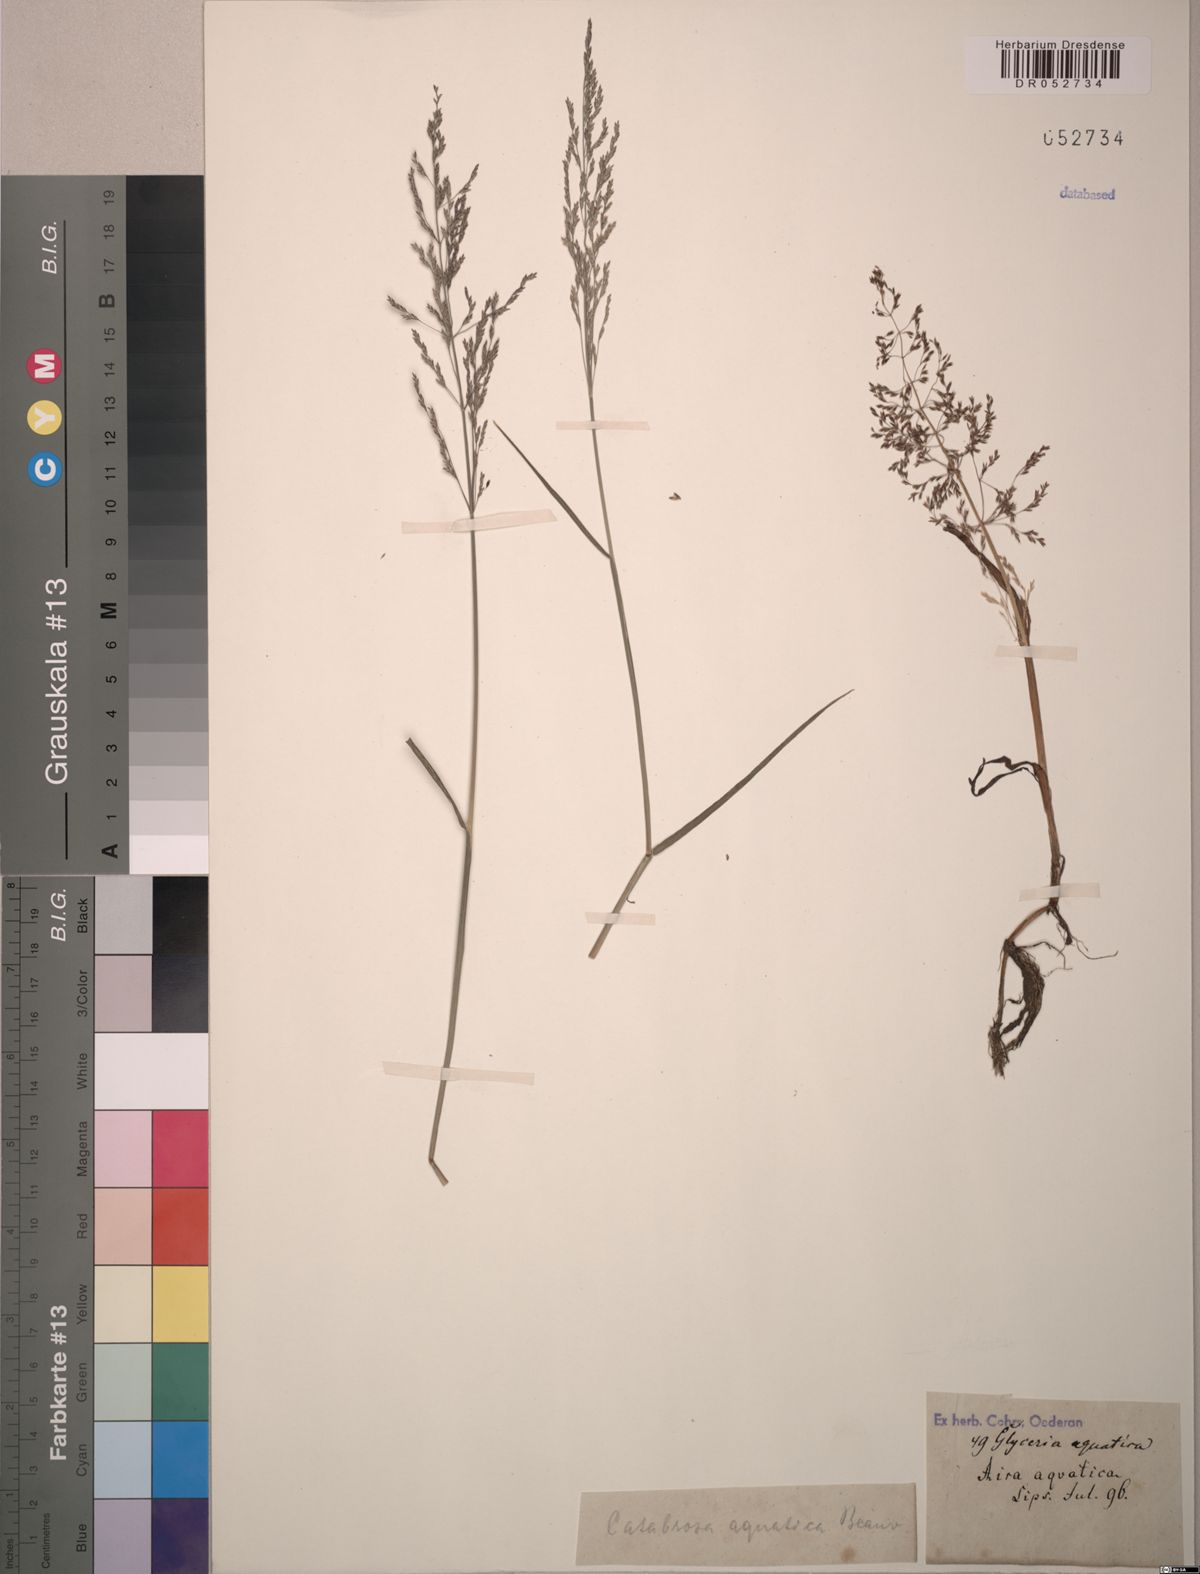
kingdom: Plantae
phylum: Tracheophyta
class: Liliopsida
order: Poales
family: Poaceae
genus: Catabrosa
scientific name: Catabrosa aquatica
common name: Whorl-grass
